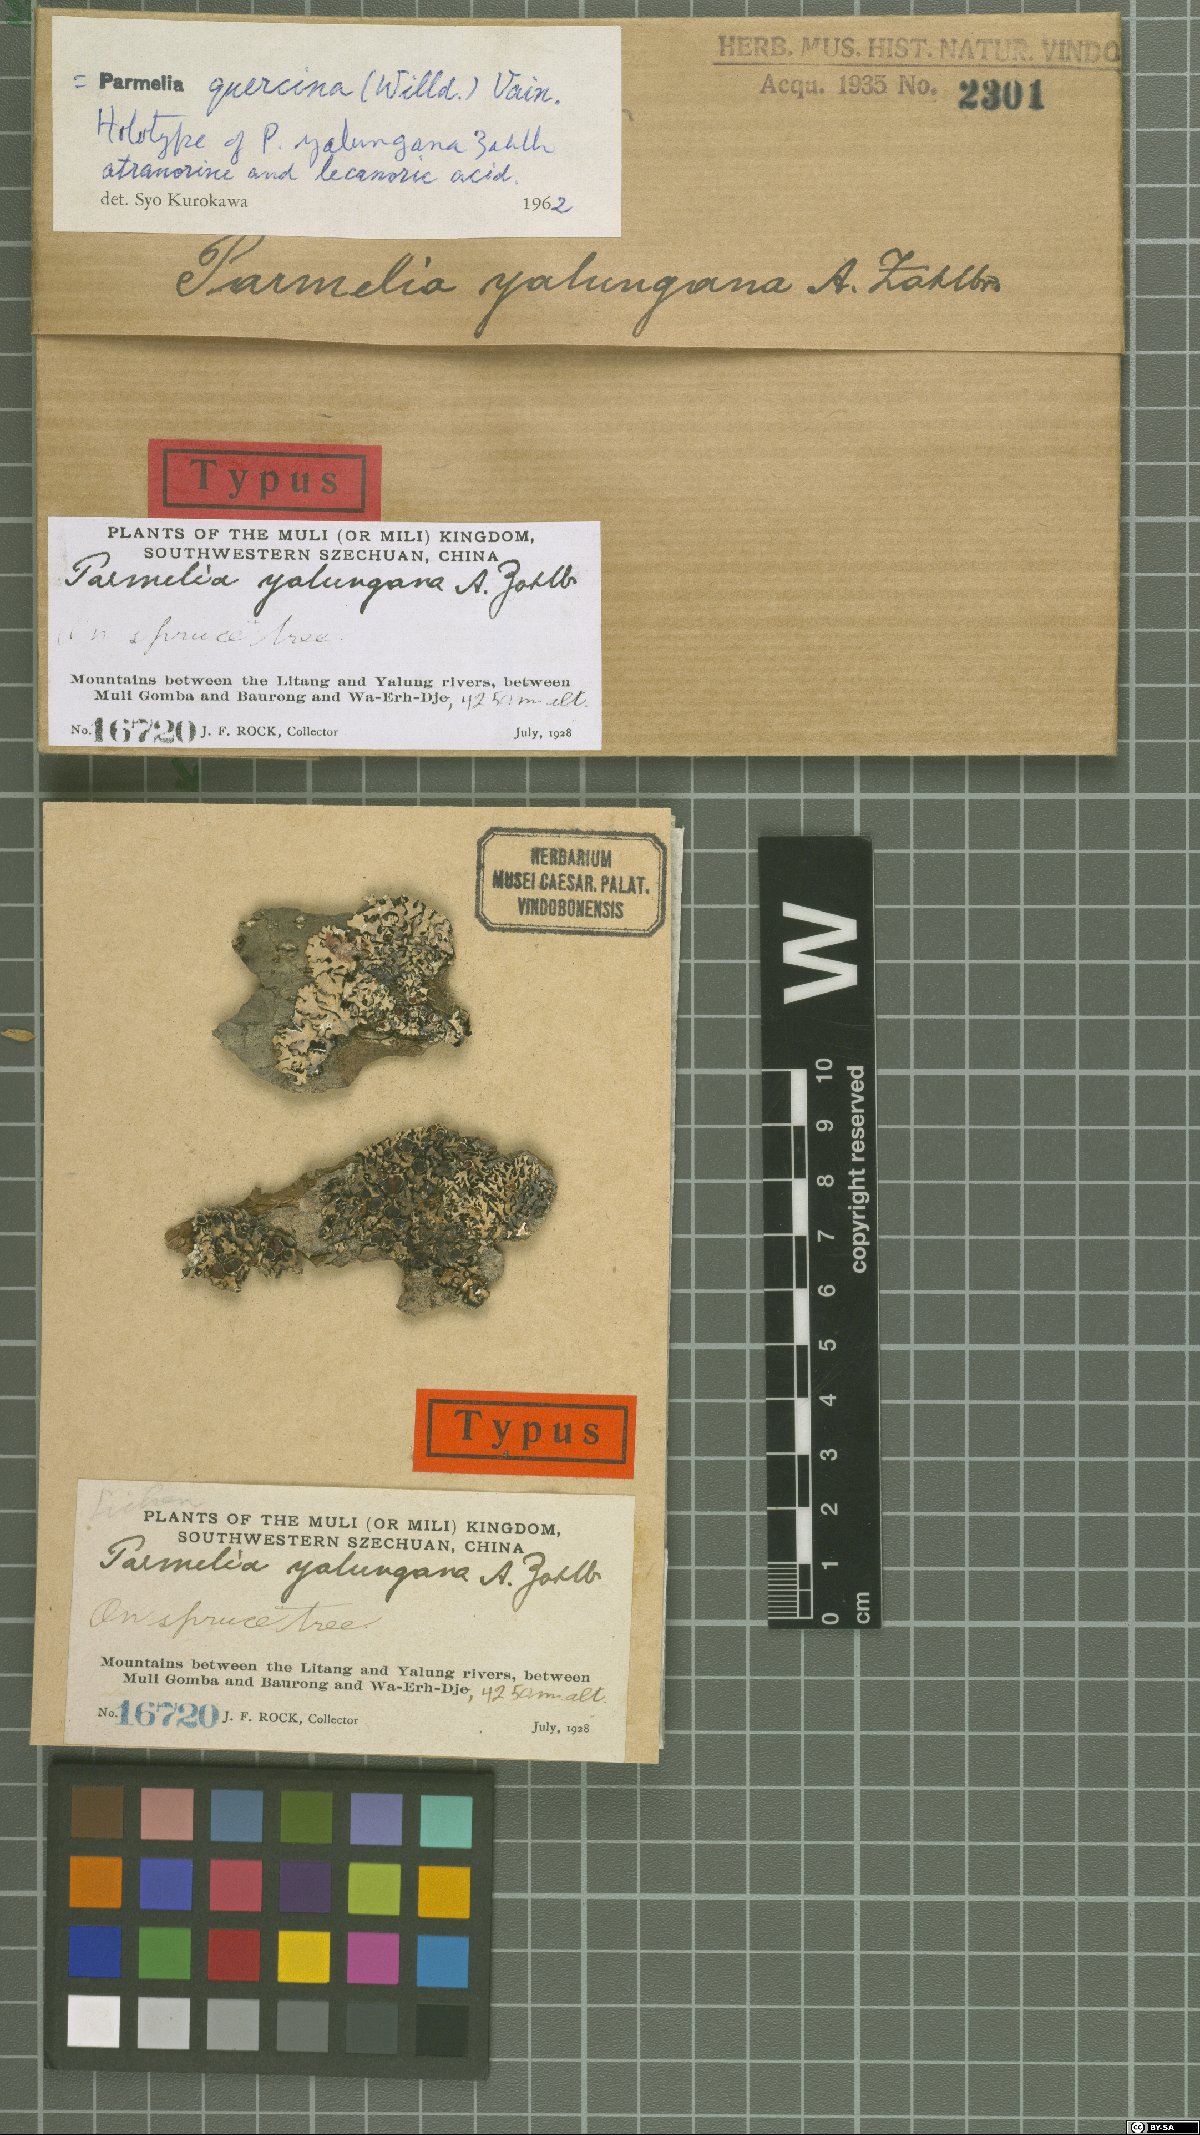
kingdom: Fungi
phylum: Ascomycota
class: Lecanoromycetes
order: Lecanorales
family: Parmeliaceae
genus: Parmelina
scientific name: Parmelina yalungana
